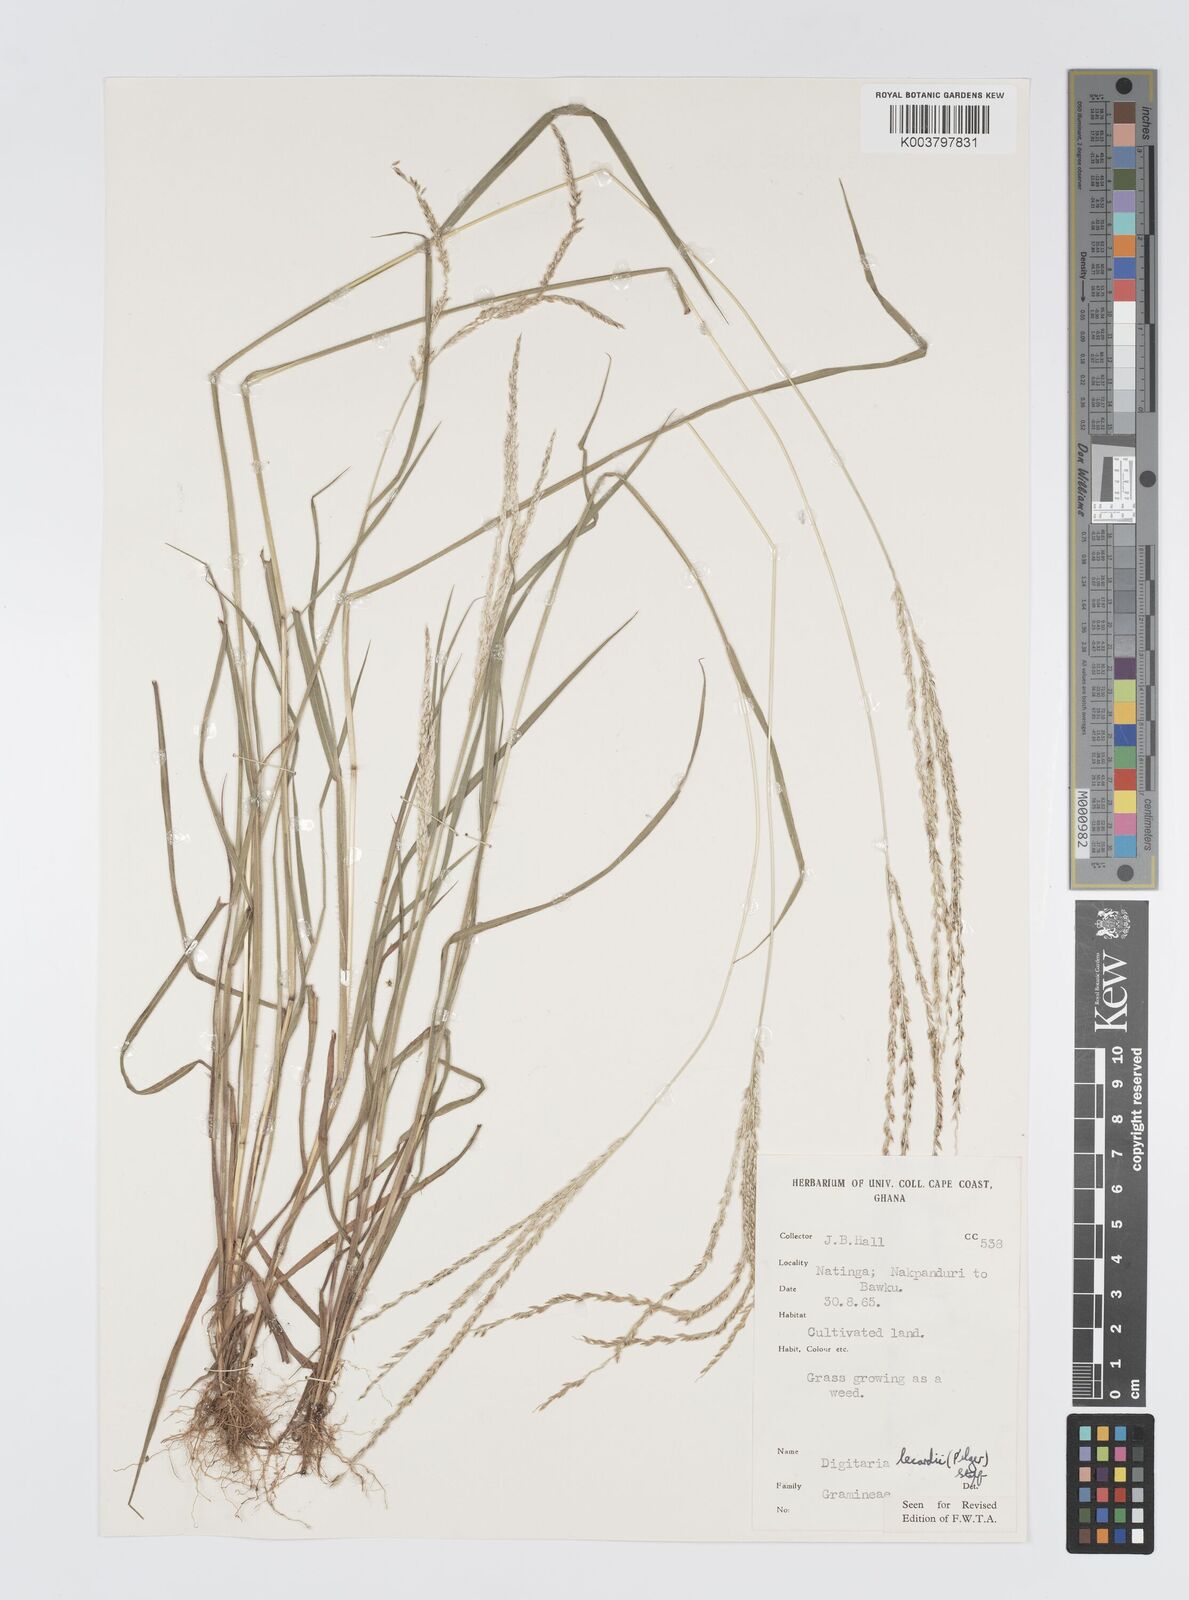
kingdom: Plantae
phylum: Tracheophyta
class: Liliopsida
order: Poales
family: Poaceae
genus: Digitaria
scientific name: Digitaria
